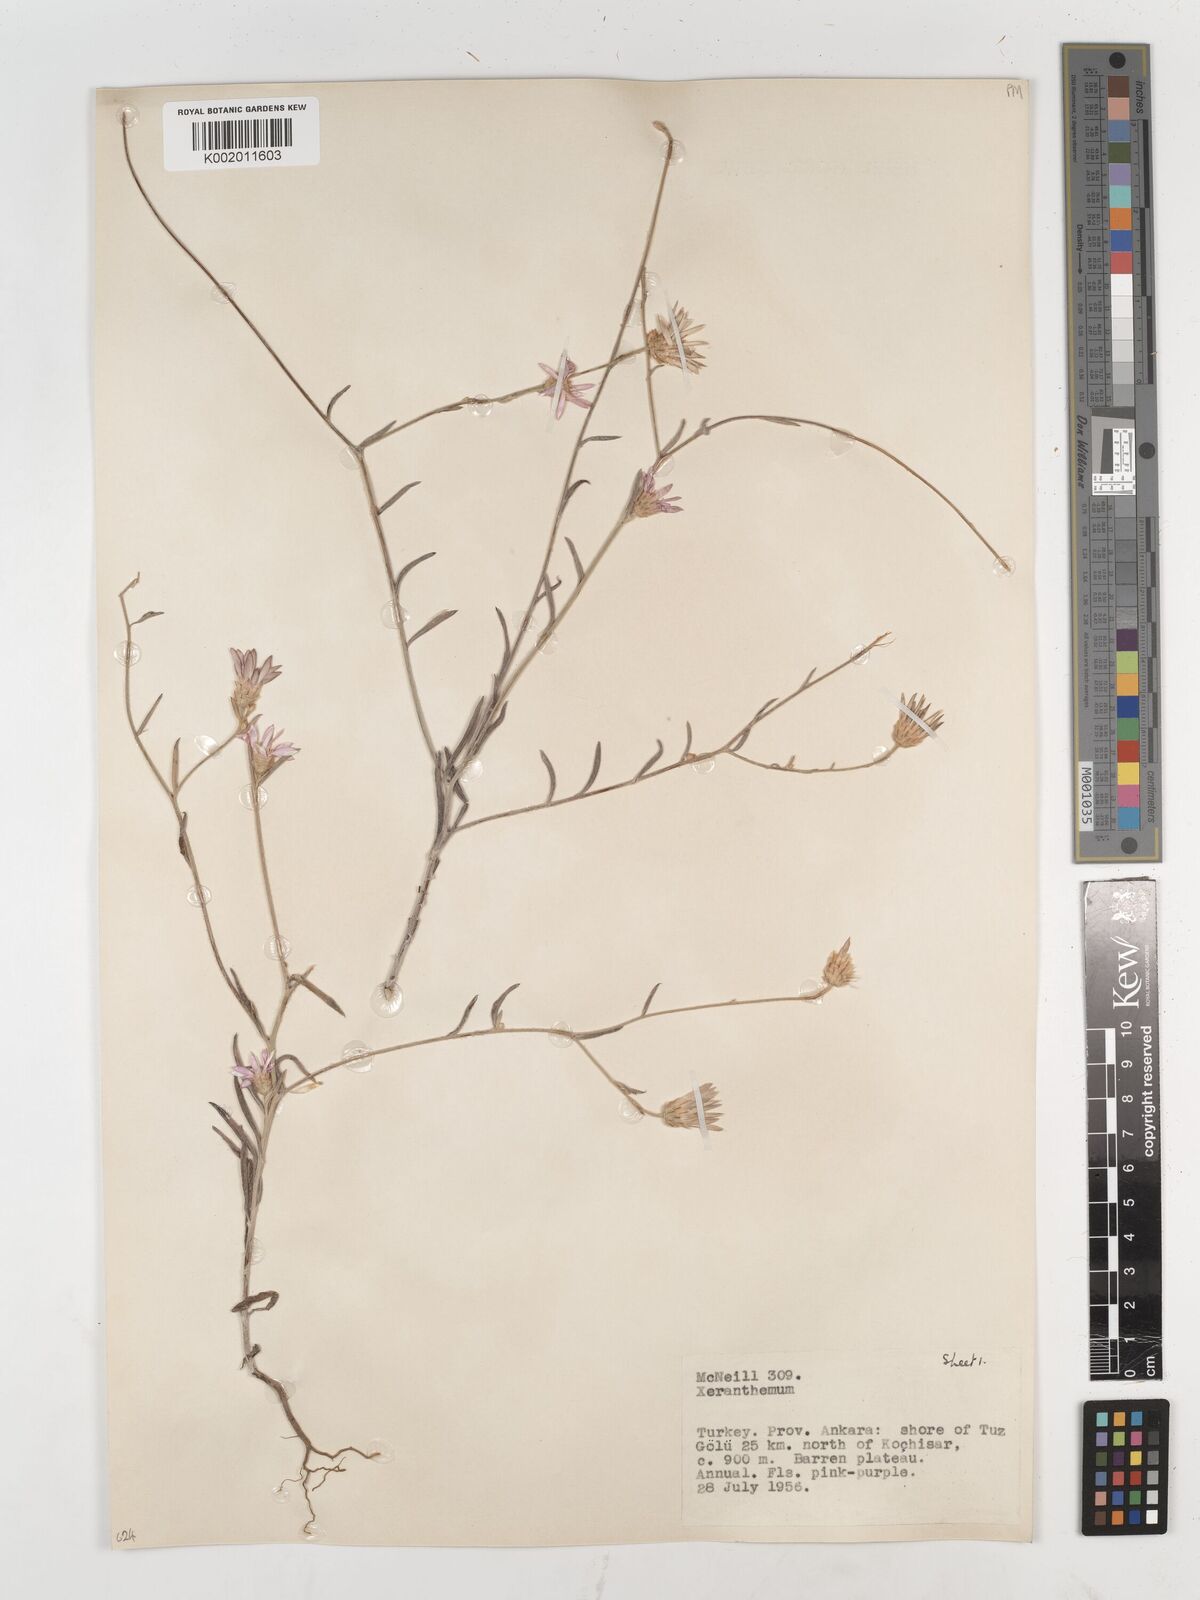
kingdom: Plantae
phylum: Tracheophyta
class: Magnoliopsida
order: Asterales
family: Asteraceae
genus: Xeranthemum
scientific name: Xeranthemum annuum
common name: Immortelle
